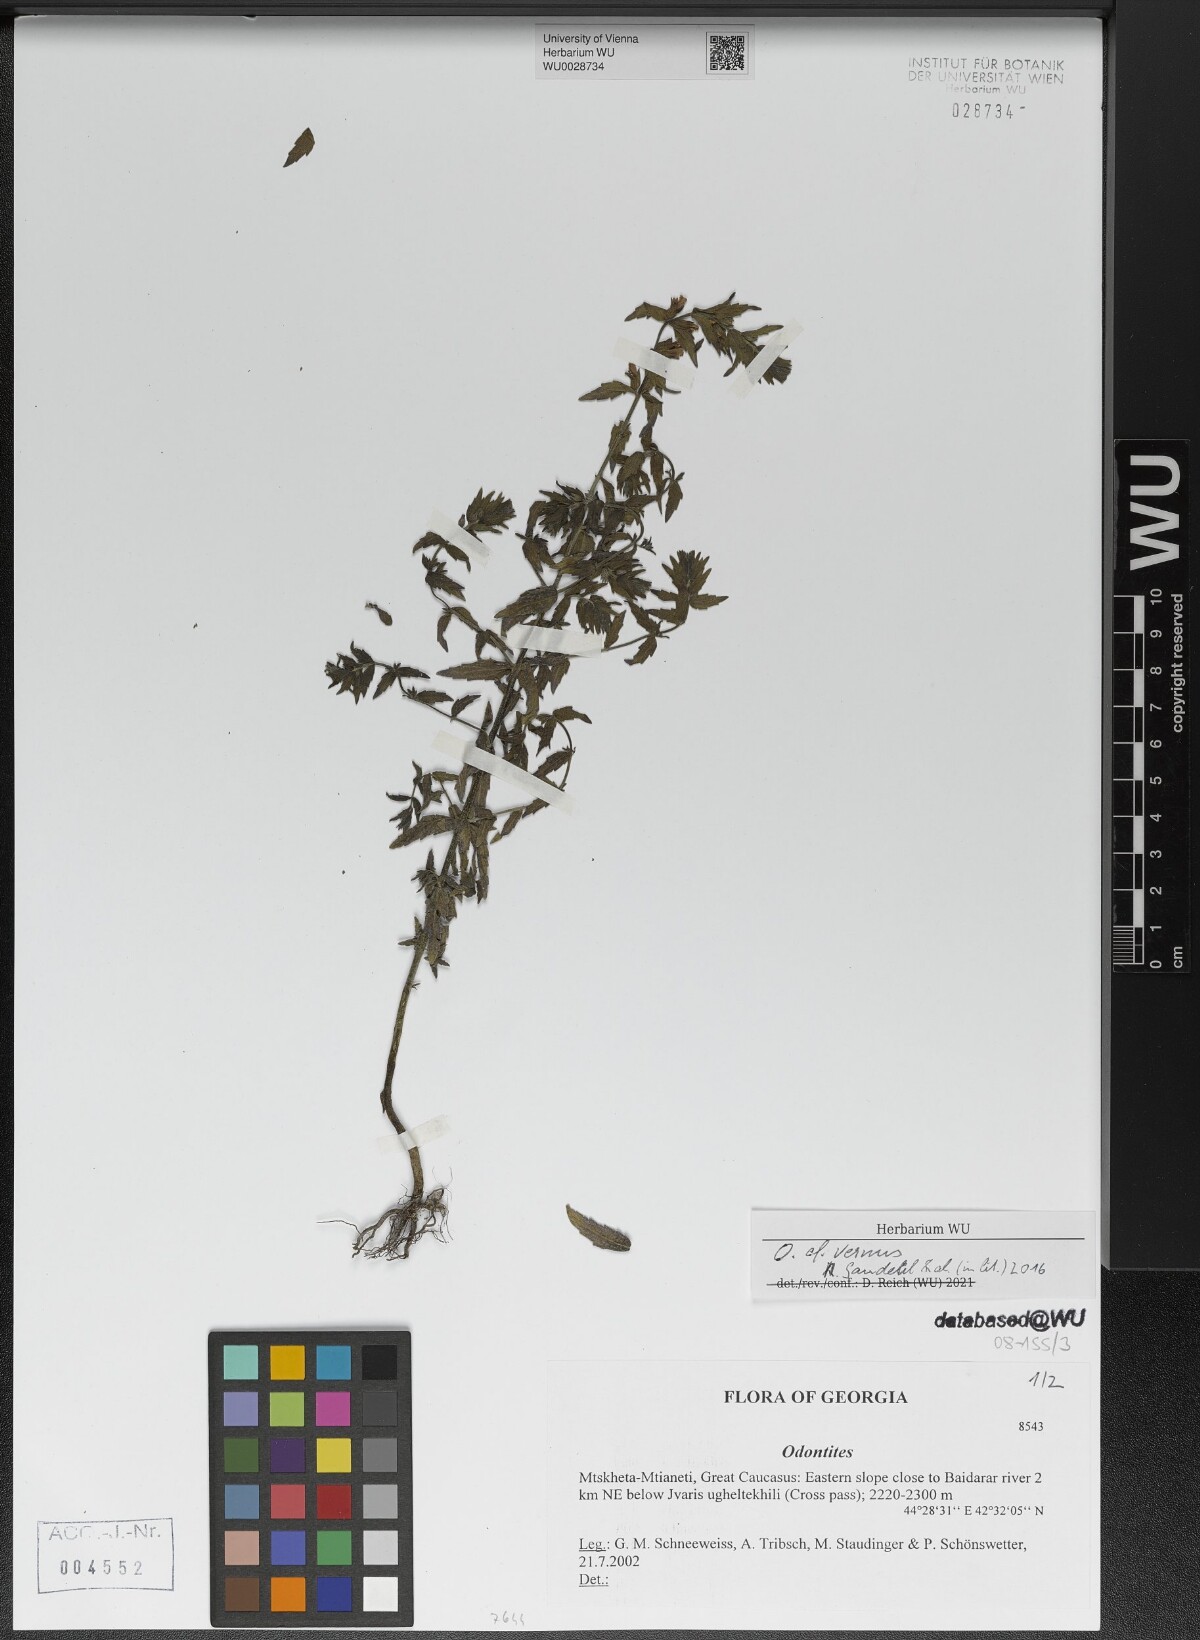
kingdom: Plantae
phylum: Tracheophyta
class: Magnoliopsida
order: Lamiales
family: Orobanchaceae
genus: Odontites
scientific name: Odontites vernus
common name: Red bartsia
